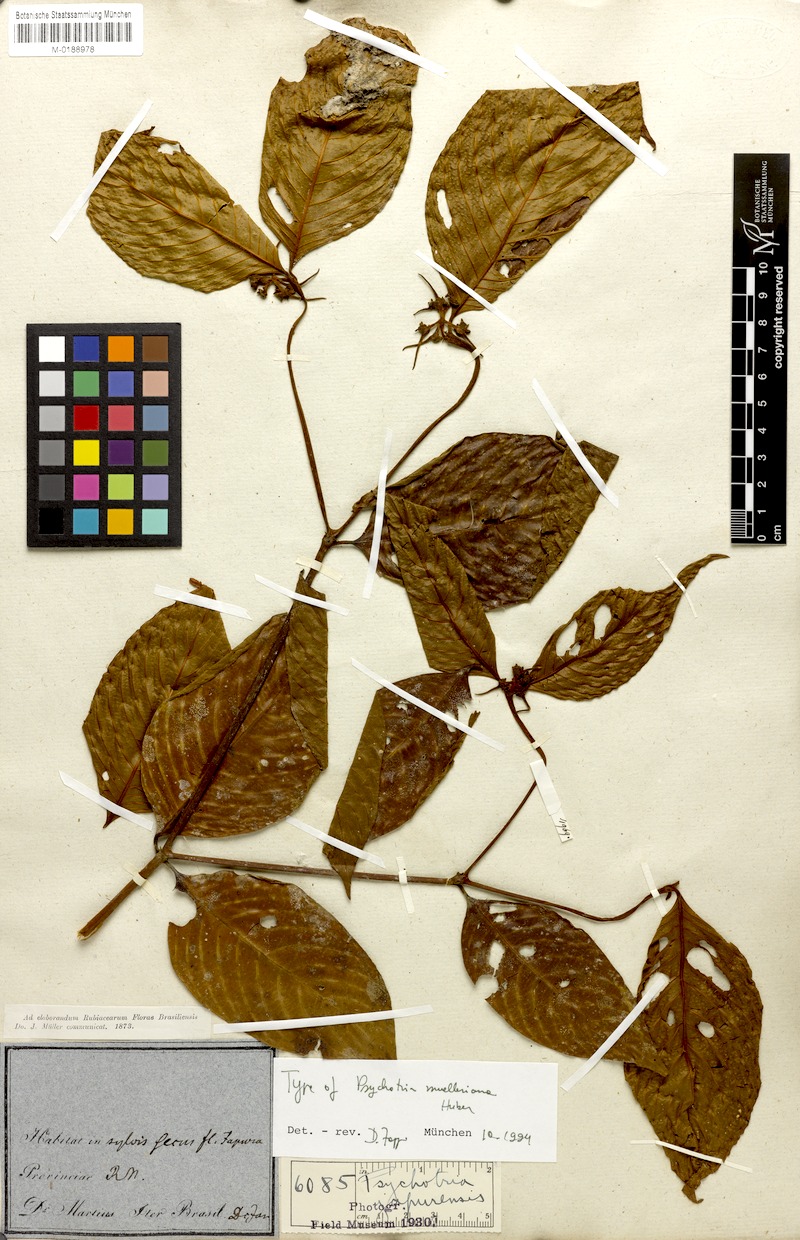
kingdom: Plantae
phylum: Tracheophyta
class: Magnoliopsida
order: Gentianales
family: Rubiaceae
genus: Palicourea
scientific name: Palicourea iodotricha
